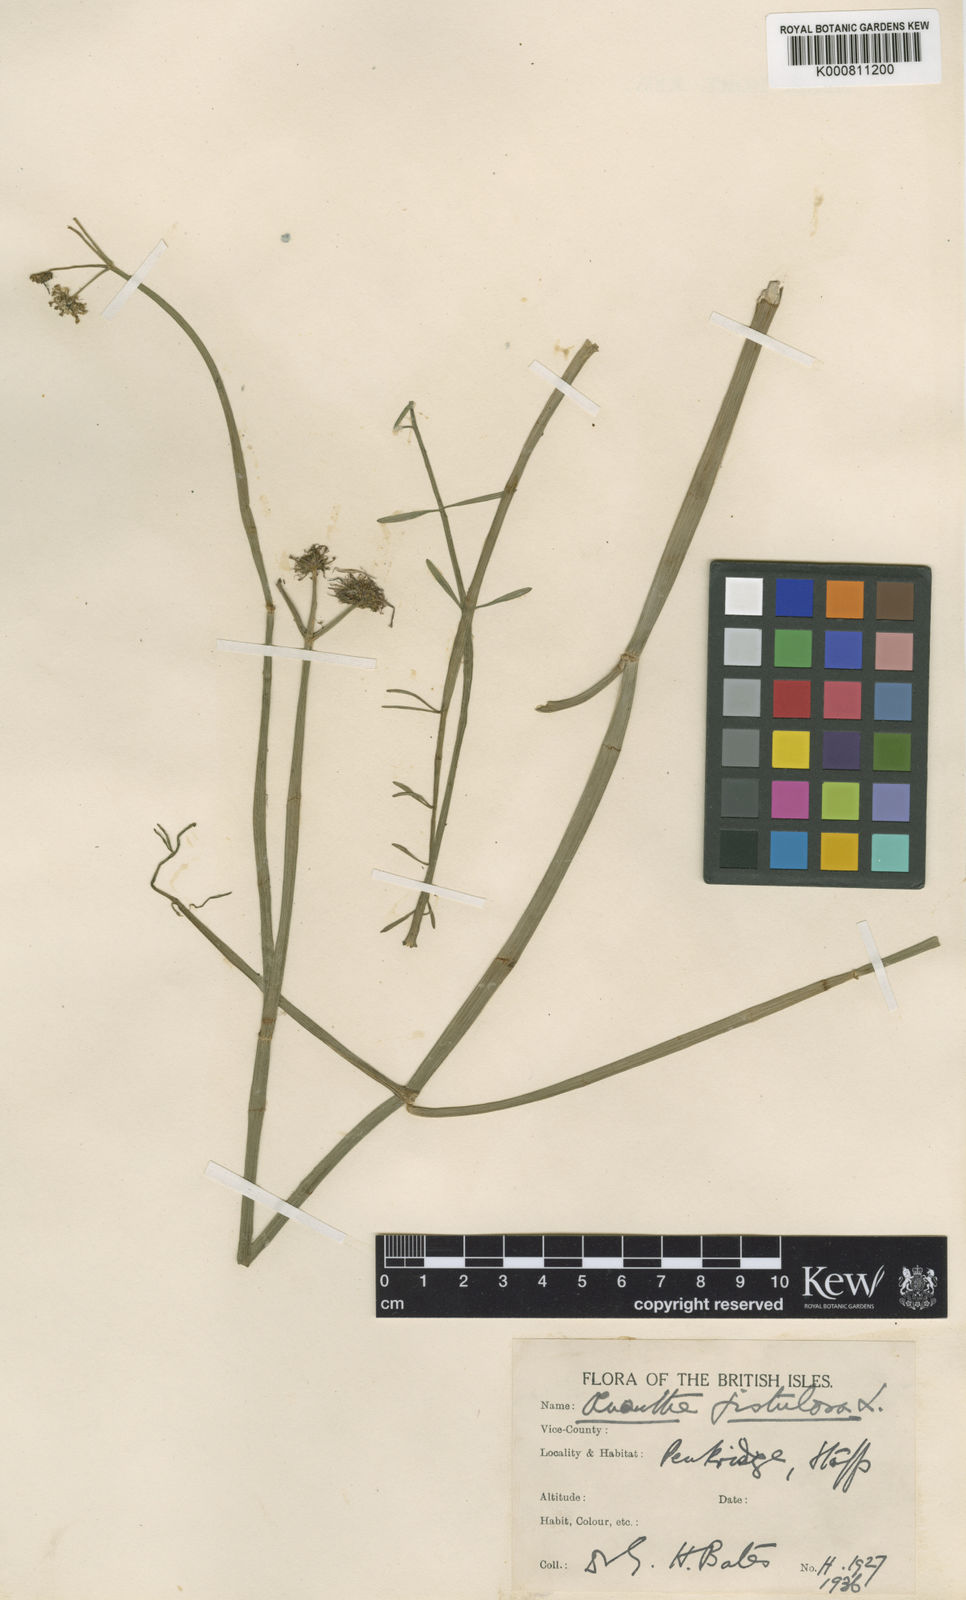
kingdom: Plantae
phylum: Tracheophyta
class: Magnoliopsida
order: Apiales
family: Apiaceae
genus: Oenanthe
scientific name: Oenanthe fistulosa
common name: Tubular water-dropwort
